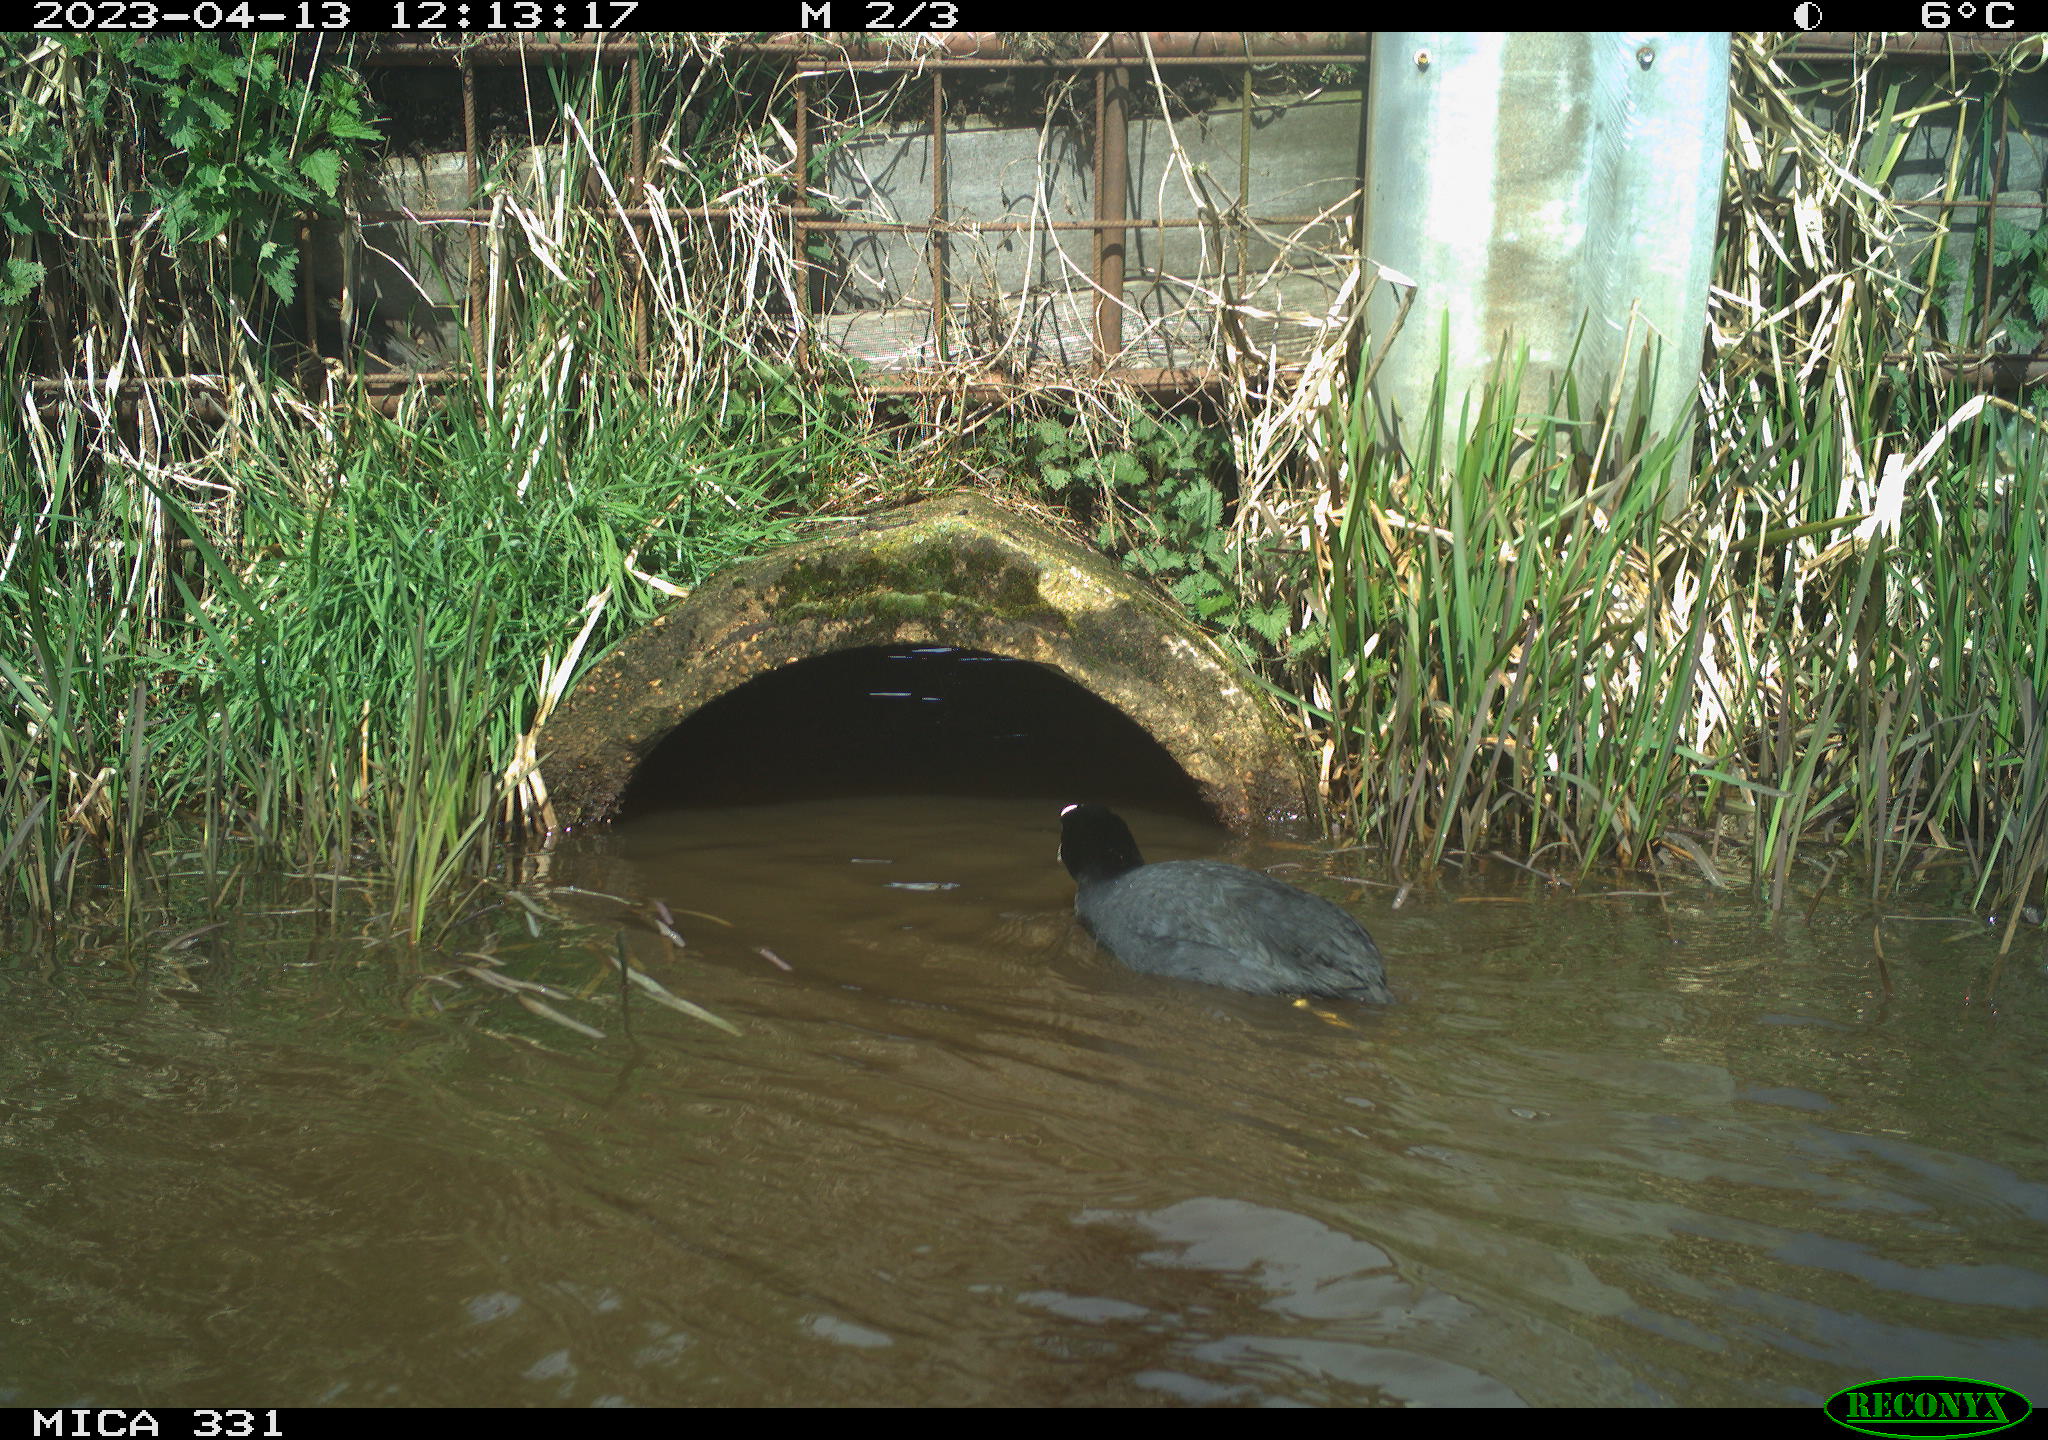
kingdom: Animalia
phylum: Chordata
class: Aves
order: Gruiformes
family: Rallidae
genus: Fulica
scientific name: Fulica atra
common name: Eurasian coot
